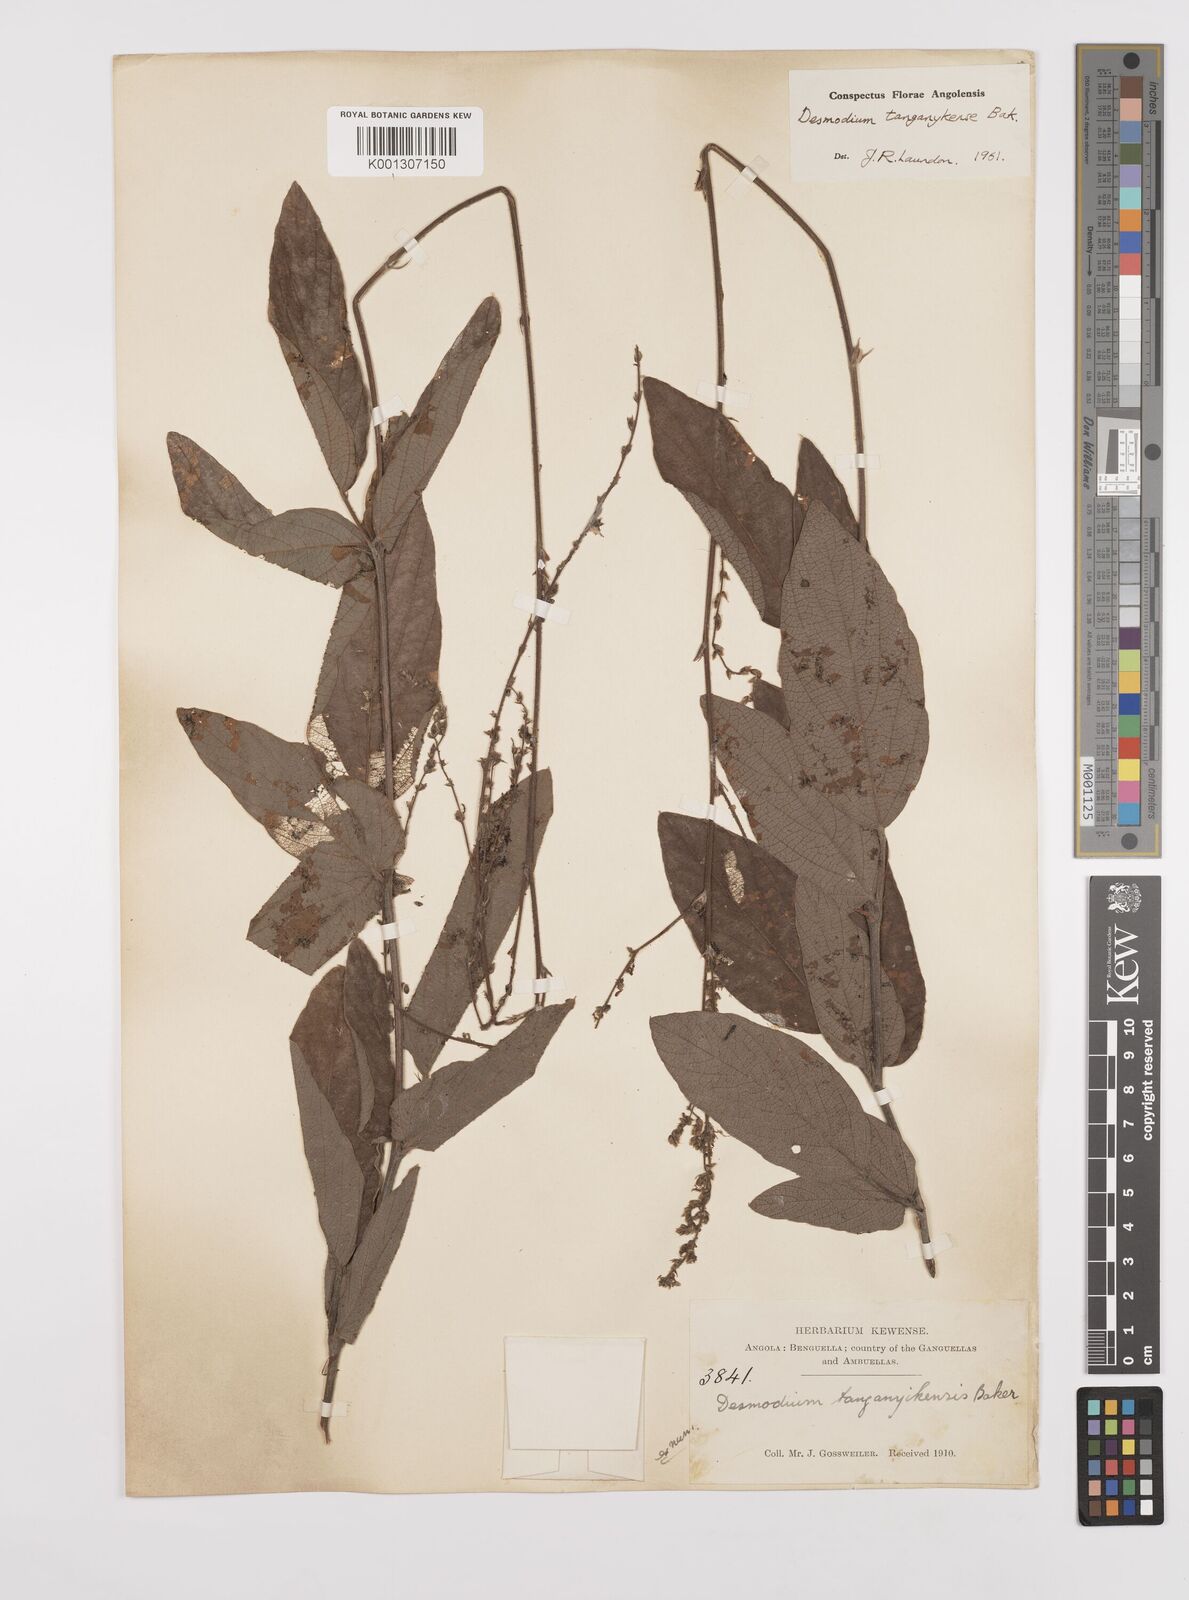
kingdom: Plantae
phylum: Tracheophyta
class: Magnoliopsida
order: Fabales
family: Fabaceae
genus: Desmodium
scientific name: Desmodium
